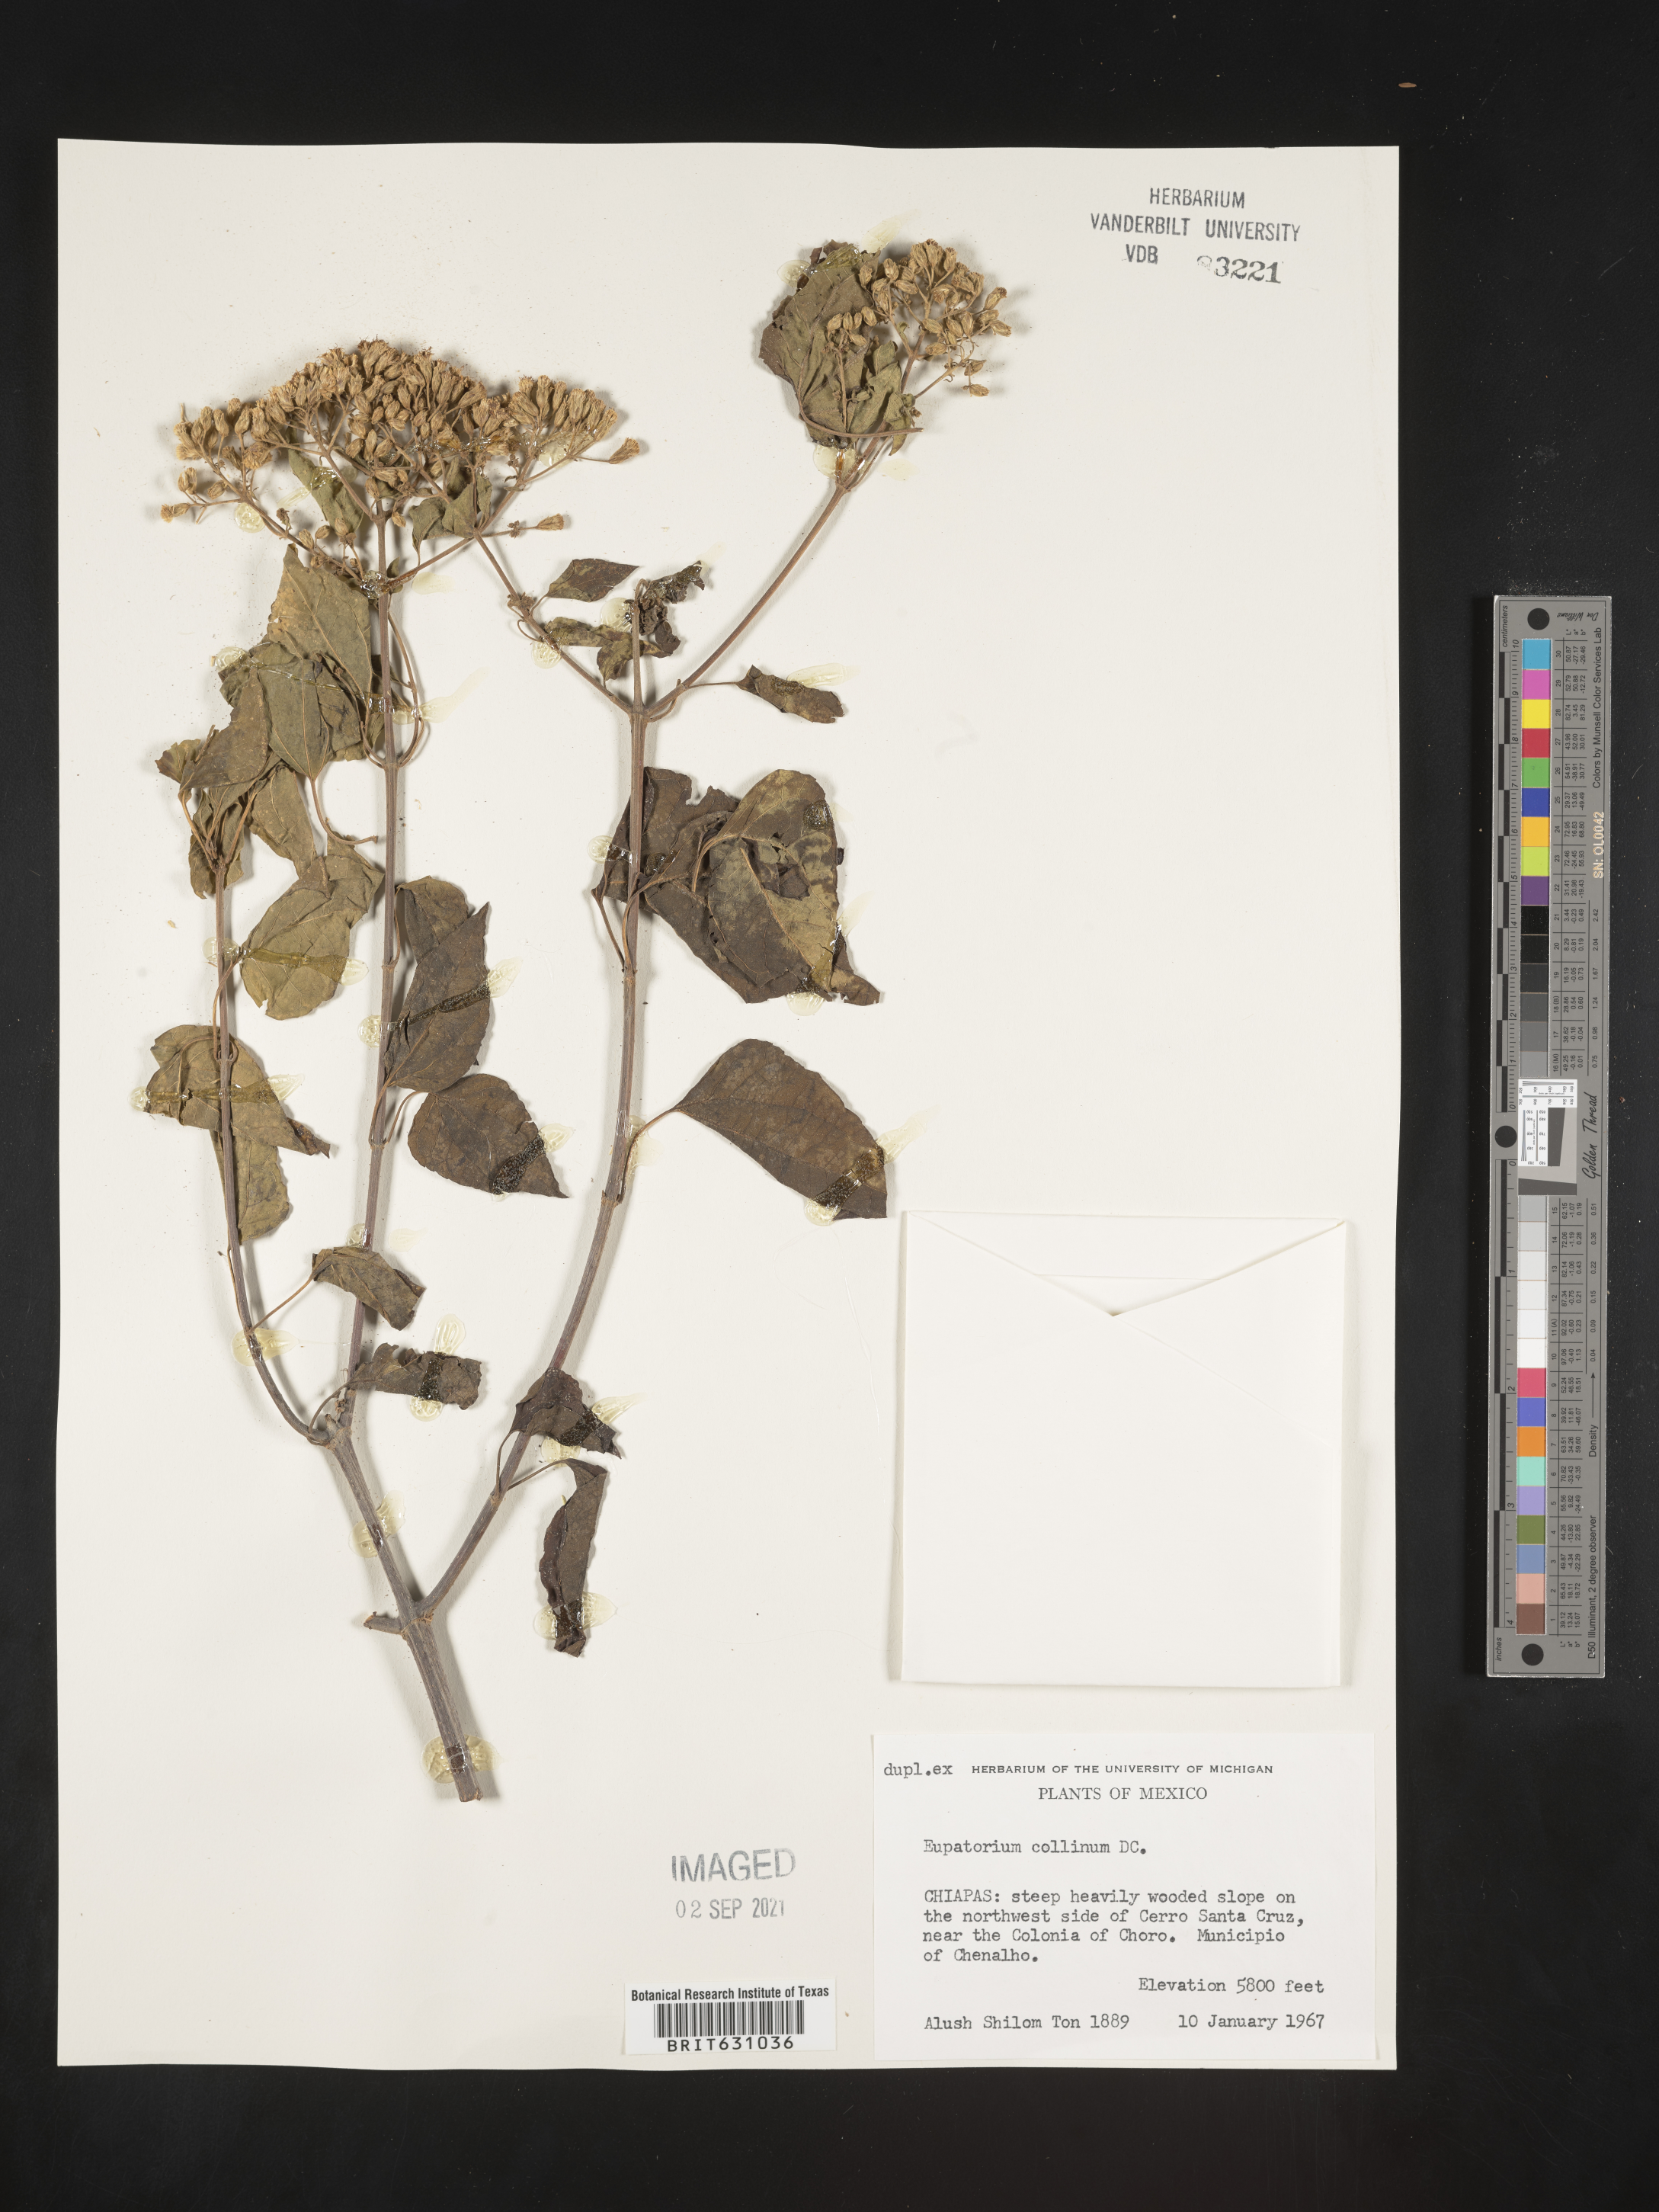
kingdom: Plantae
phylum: Tracheophyta
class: Magnoliopsida
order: Asterales
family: Asteraceae
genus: Eupatorium
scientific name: Eupatorium
